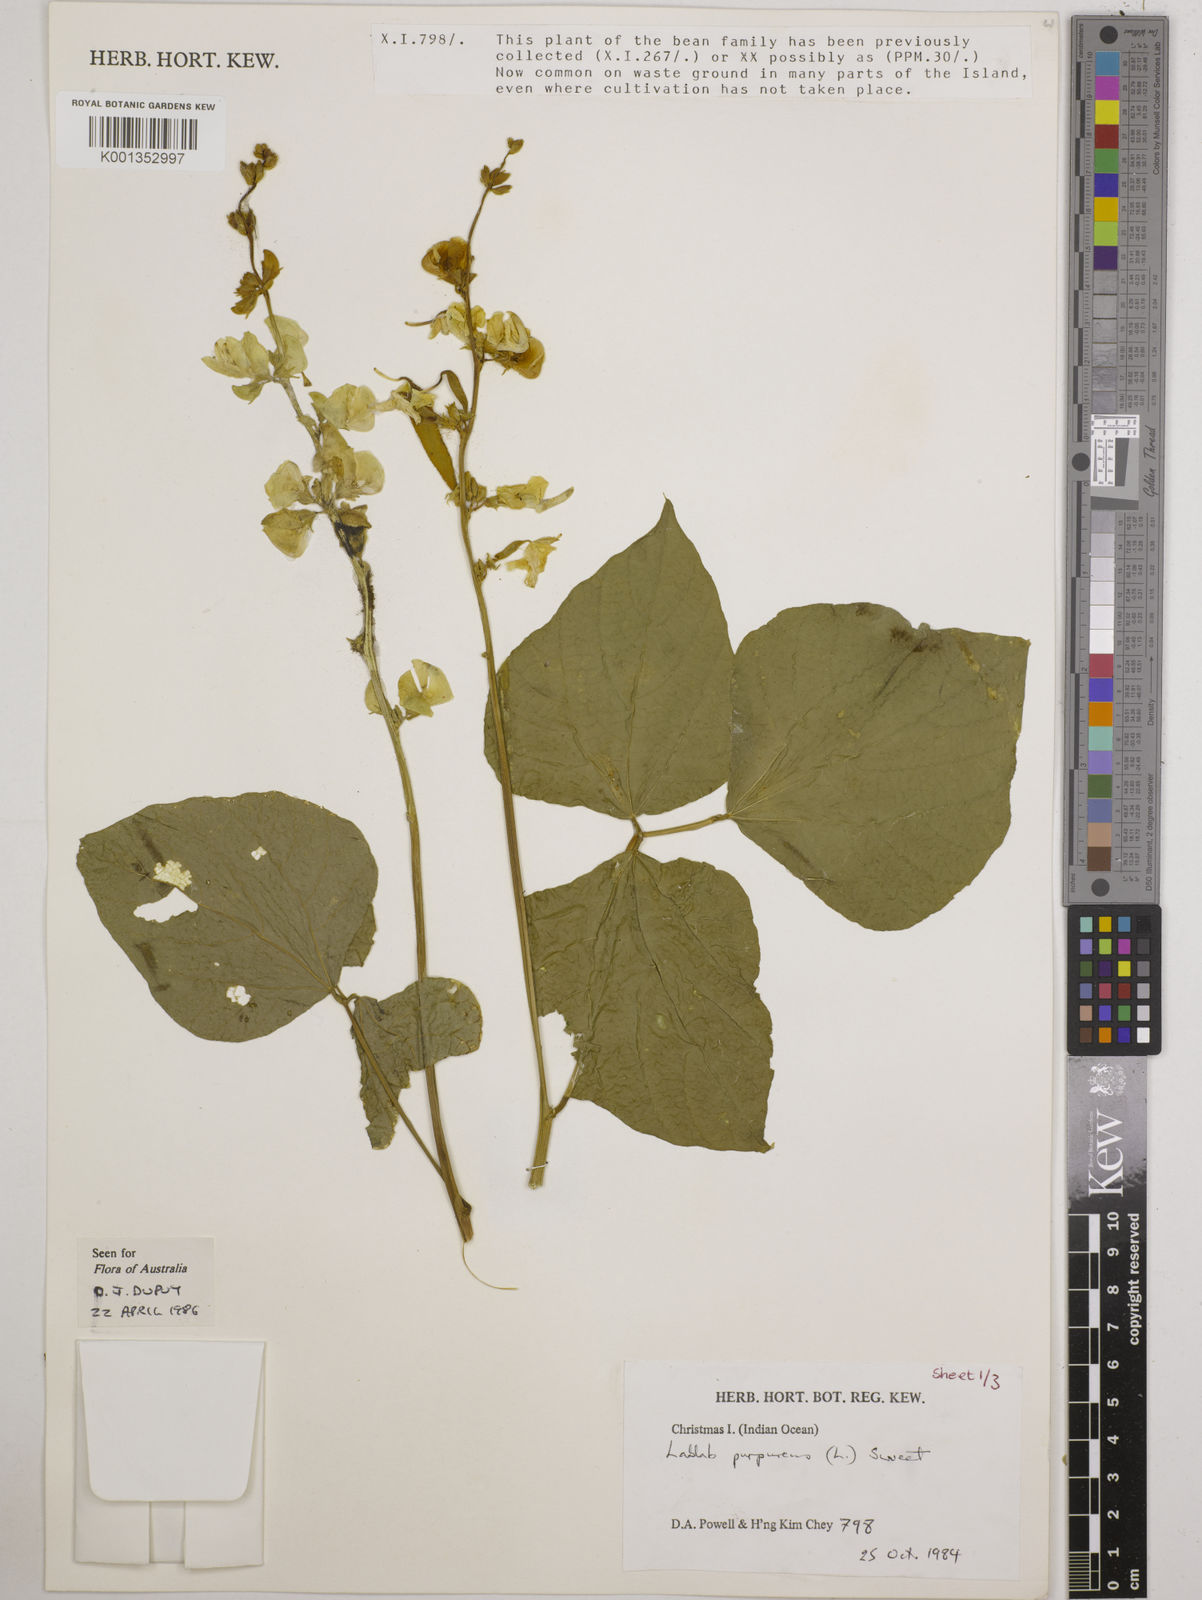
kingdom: Plantae
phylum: Tracheophyta
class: Magnoliopsida
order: Fabales
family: Fabaceae
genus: Lablab
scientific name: Lablab purpureus
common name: Lablab-bean
